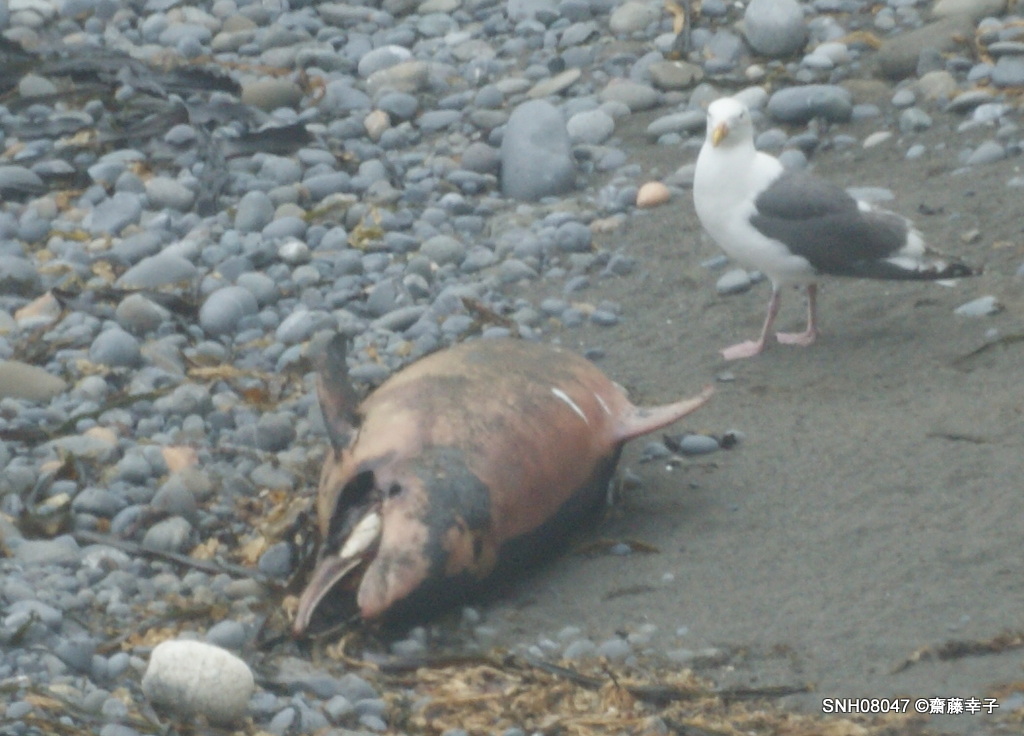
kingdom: Animalia
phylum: Chordata
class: Mammalia
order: Cetacea
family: Delphinidae
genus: Lagenorhynchus
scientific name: Lagenorhynchus obliquidens
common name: Pacific white-sided dolphin
